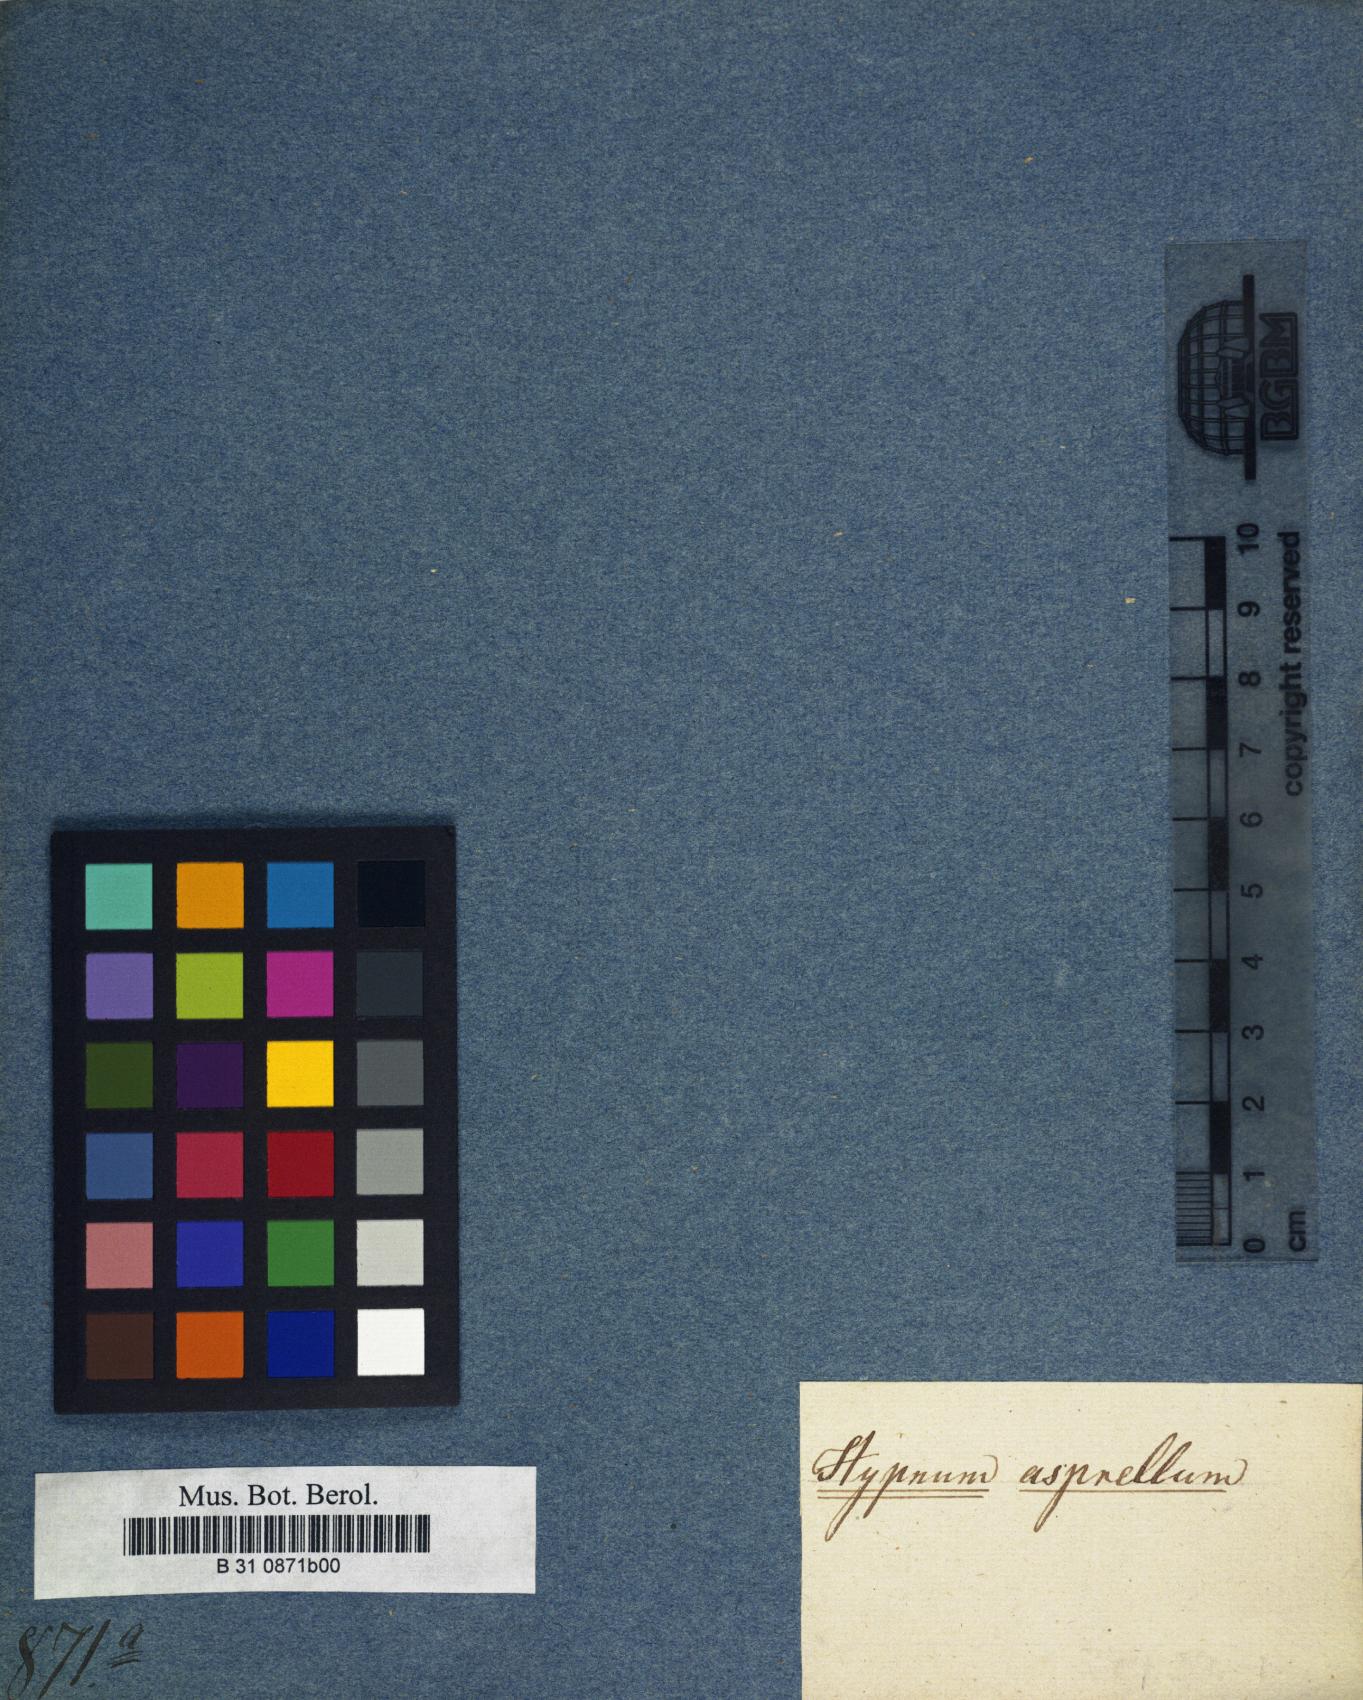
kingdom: Plantae
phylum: Bryophyta
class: Bryopsida
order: Hypnales
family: Brachytheciaceae
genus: Brachythecium
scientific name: Brachythecium laetum
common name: Bright ragged moss
